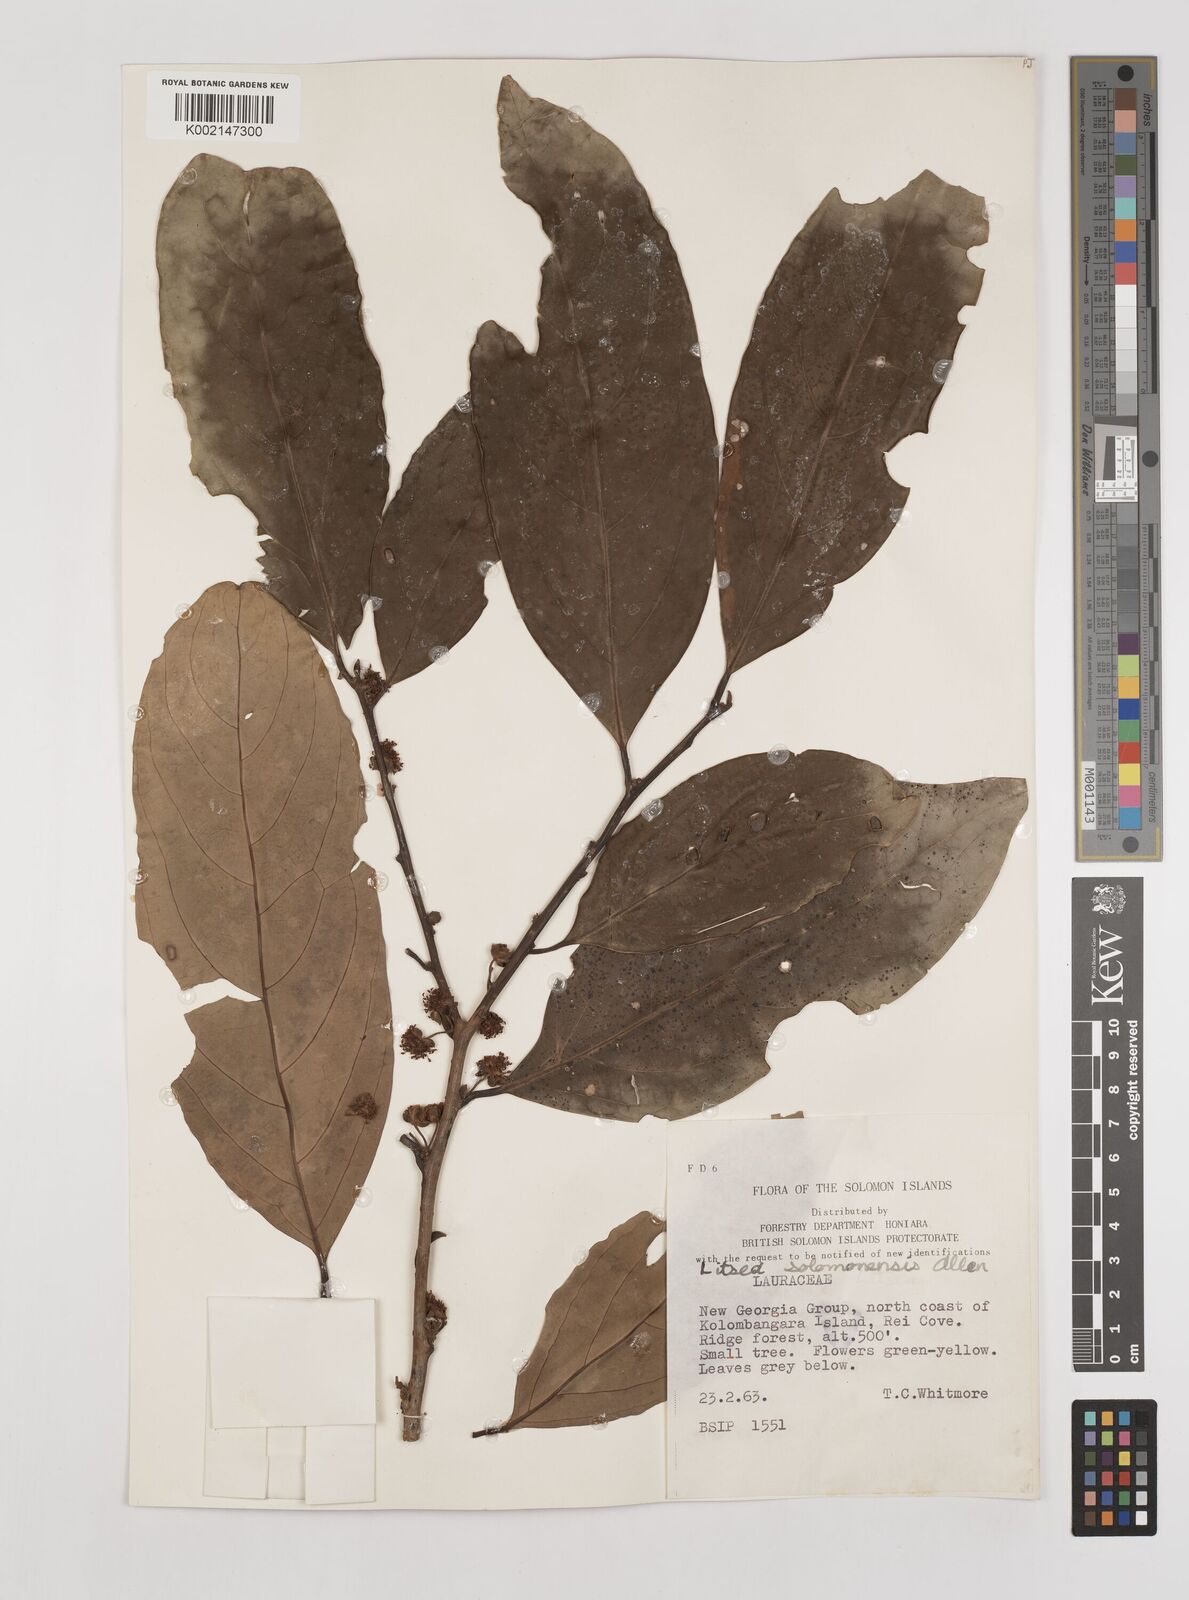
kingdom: Plantae
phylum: Tracheophyta
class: Magnoliopsida
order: Laurales
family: Lauraceae
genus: Litsea
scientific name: Litsea timoriana
